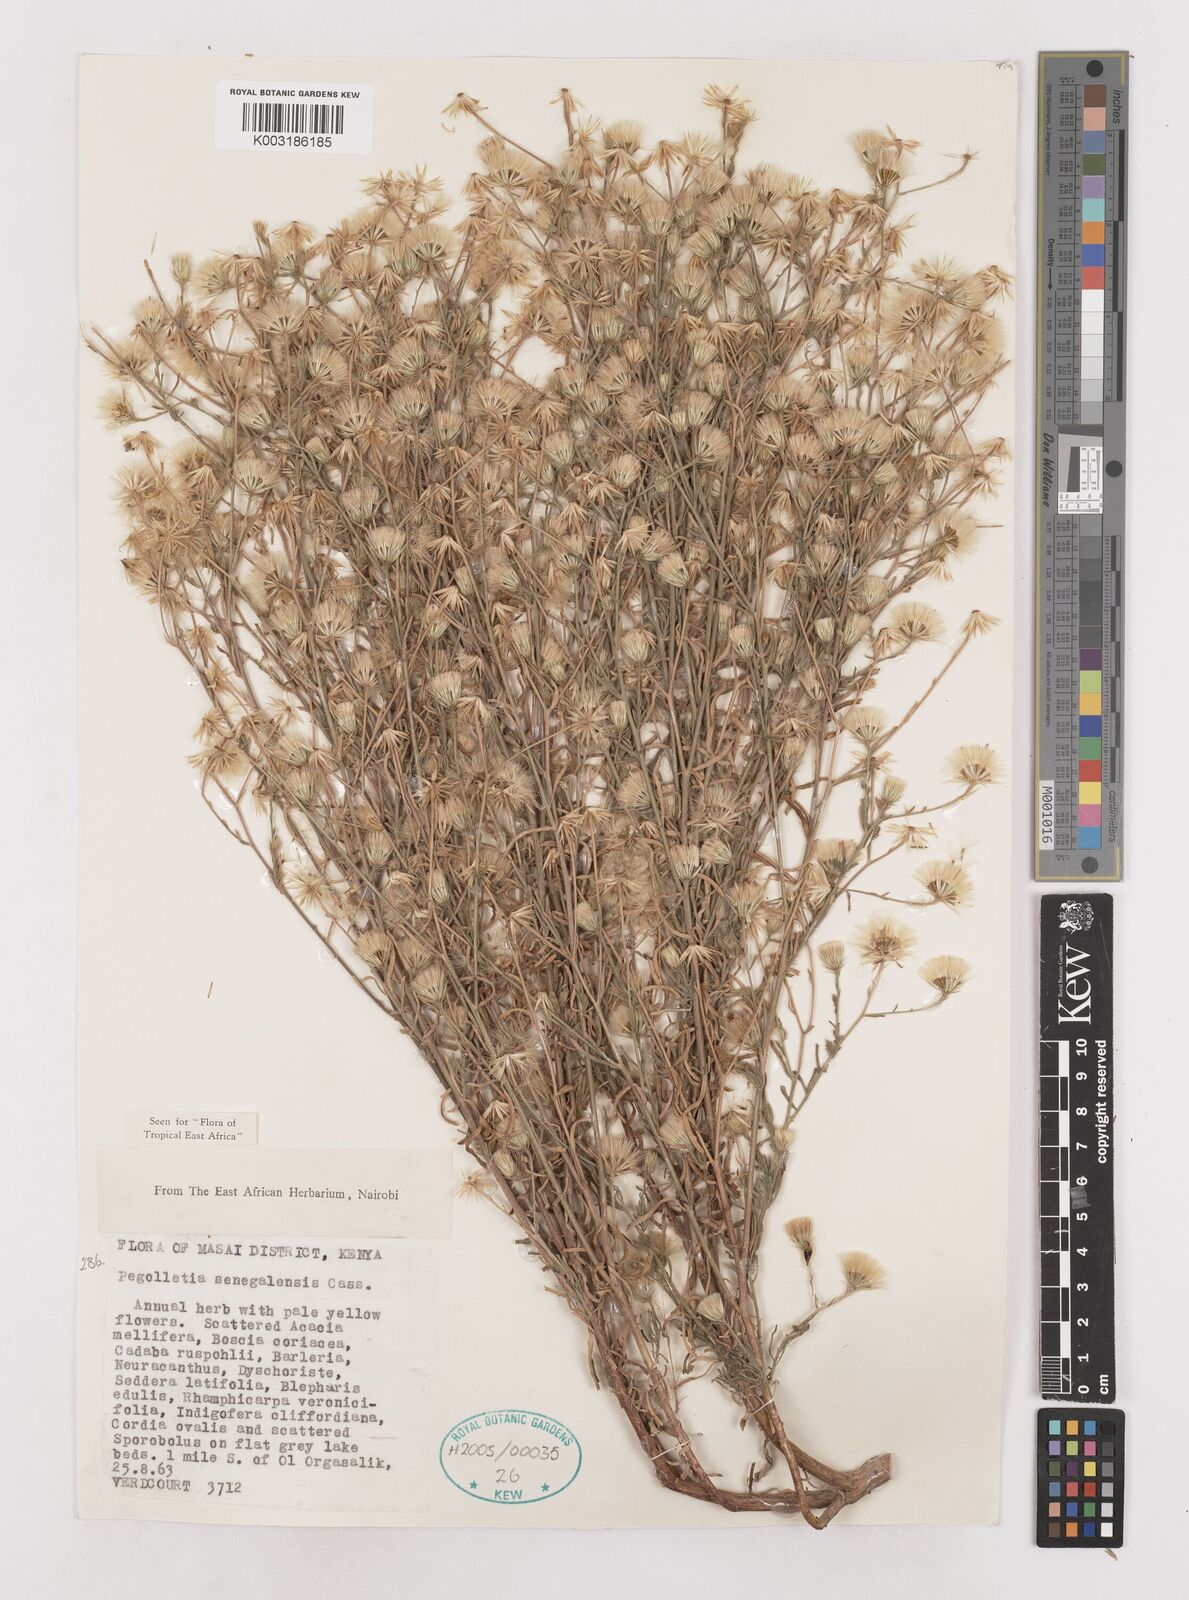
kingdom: Plantae
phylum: Tracheophyta
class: Magnoliopsida
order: Asterales
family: Asteraceae
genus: Pegolettia
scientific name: Pegolettia senegalensis
